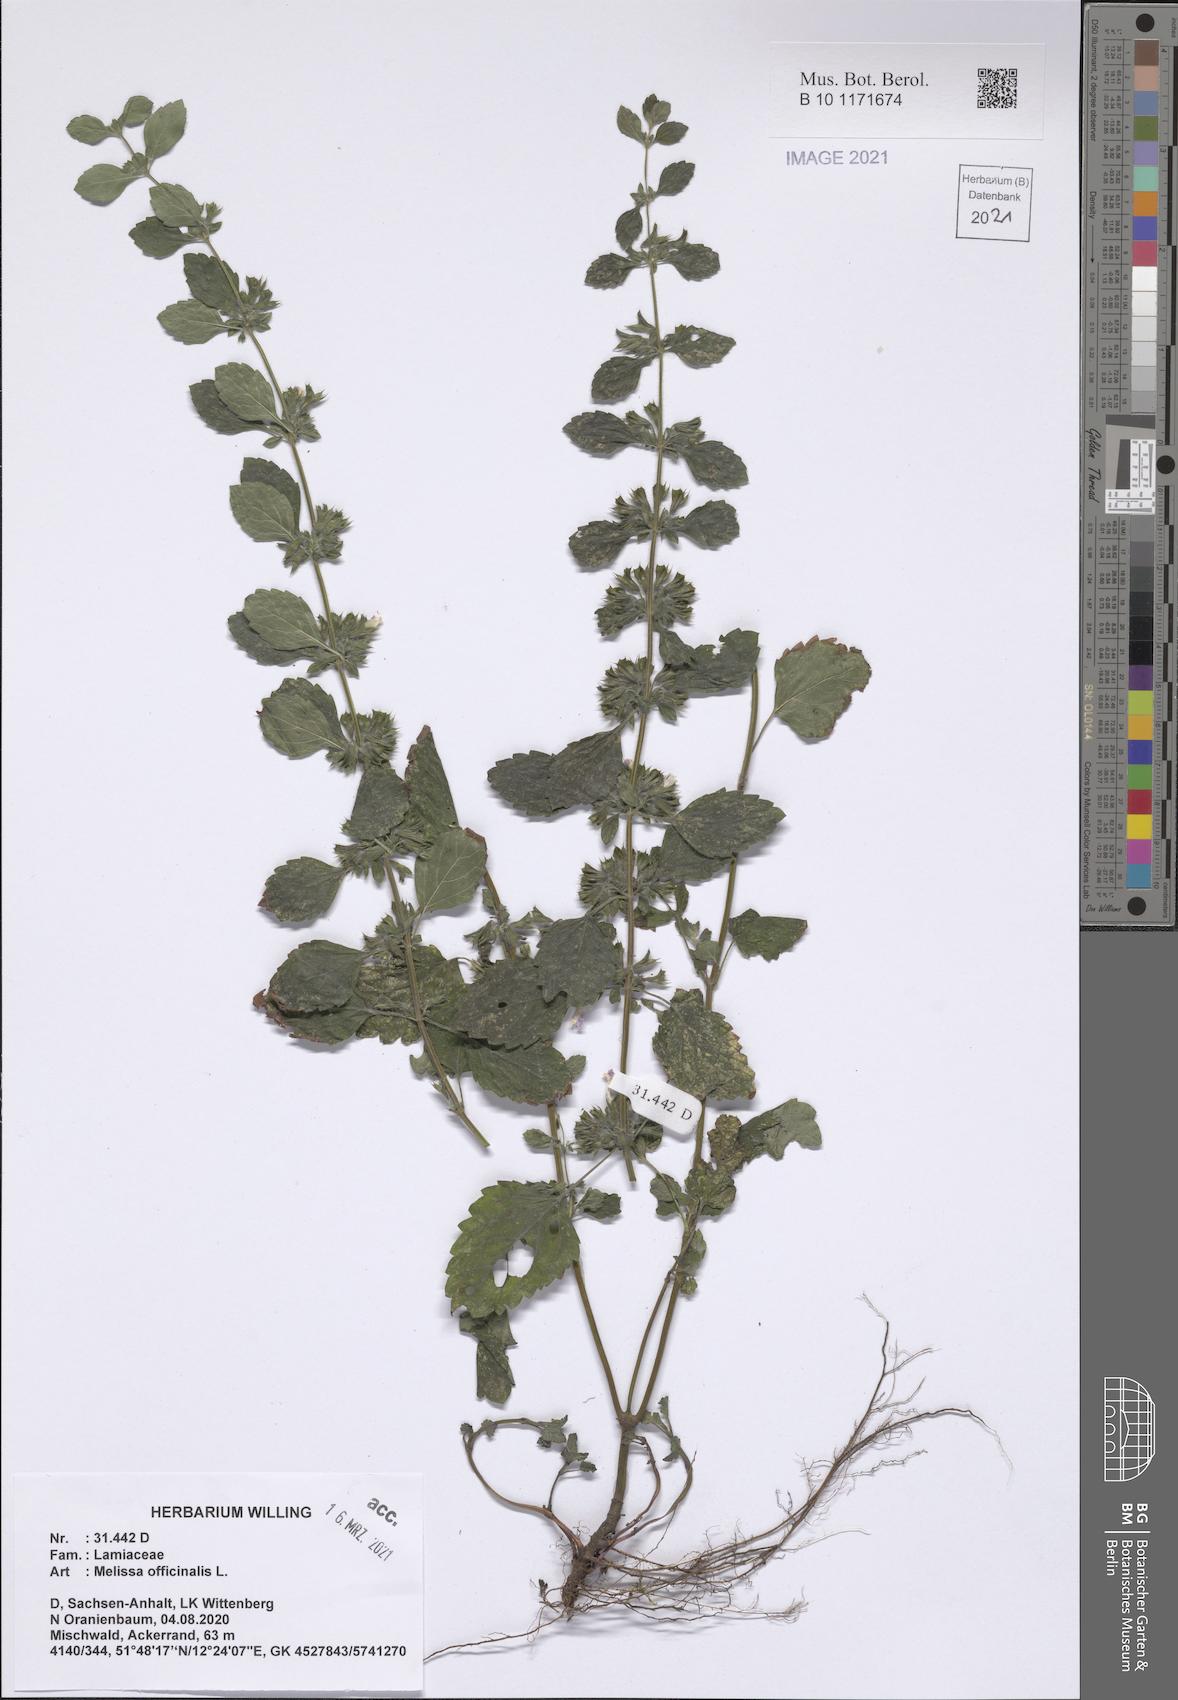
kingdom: Plantae
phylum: Tracheophyta
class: Magnoliopsida
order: Lamiales
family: Lamiaceae
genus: Melissa
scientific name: Melissa officinalis
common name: Balm
